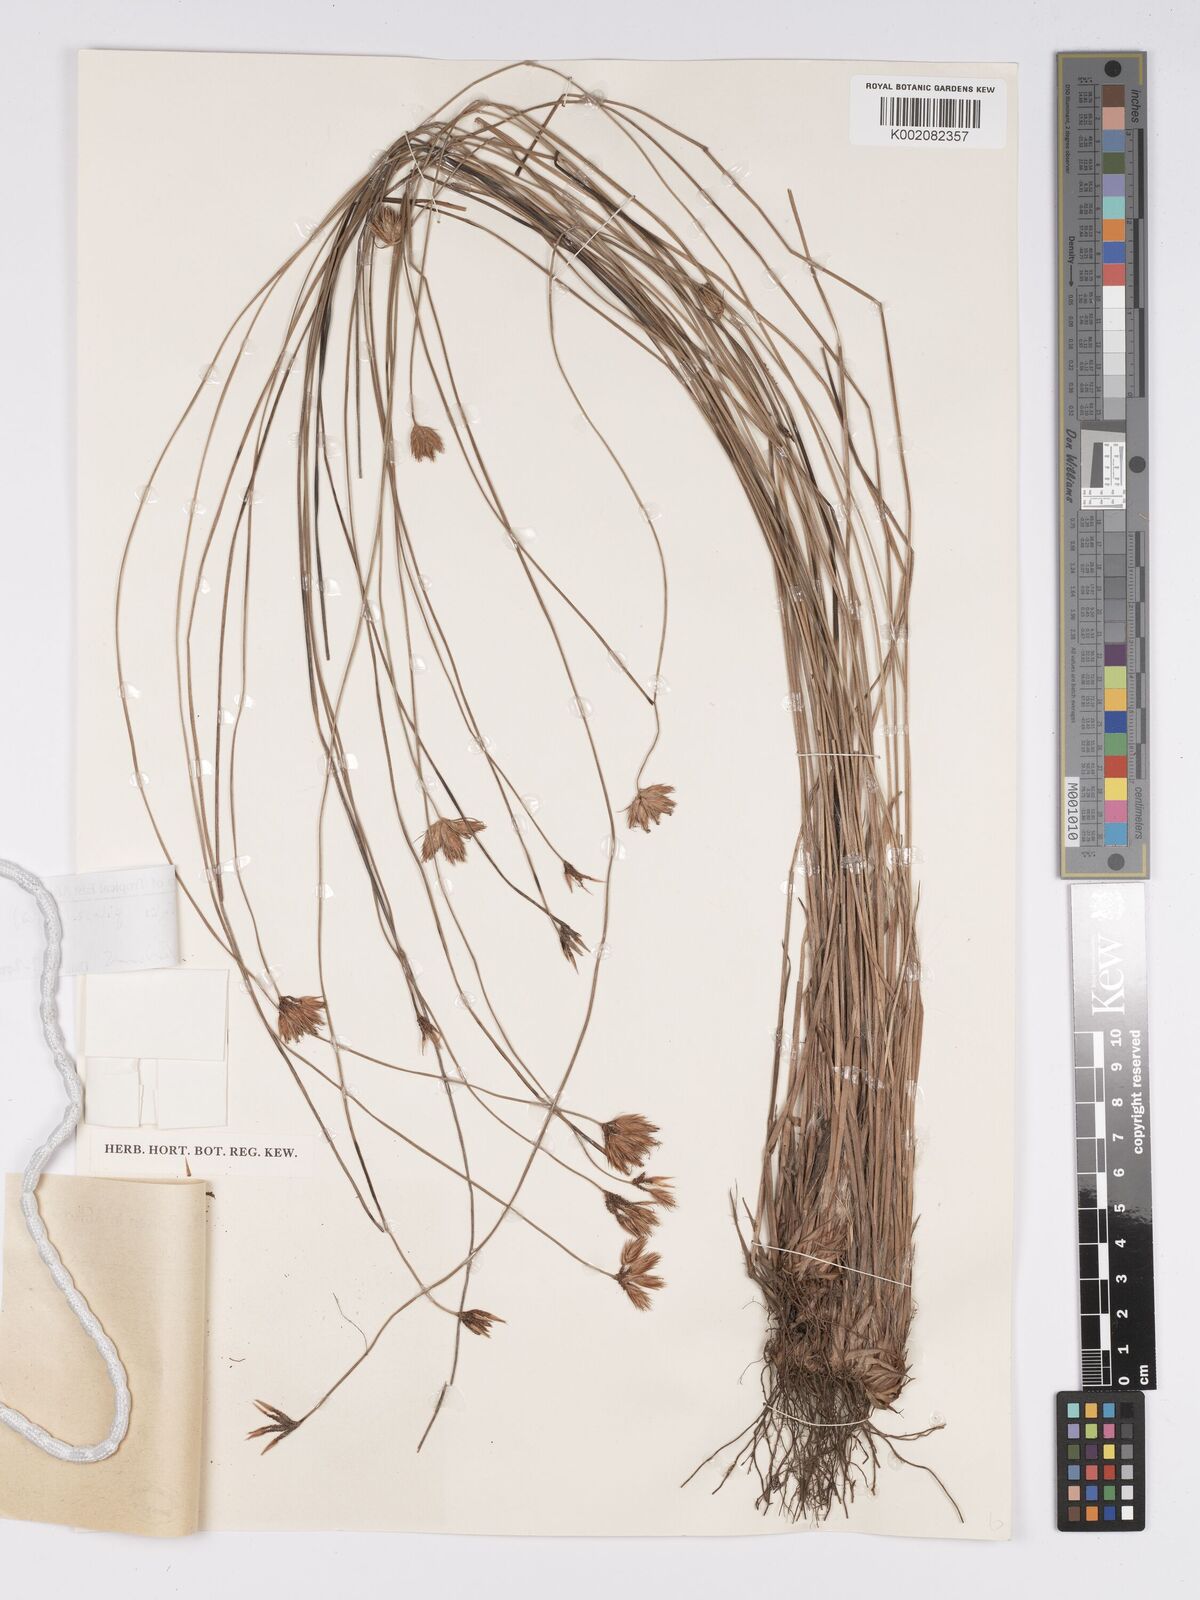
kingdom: Plantae
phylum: Tracheophyta
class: Liliopsida
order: Poales
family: Cyperaceae
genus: Bulbostylis
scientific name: Bulbostylis pilosa
